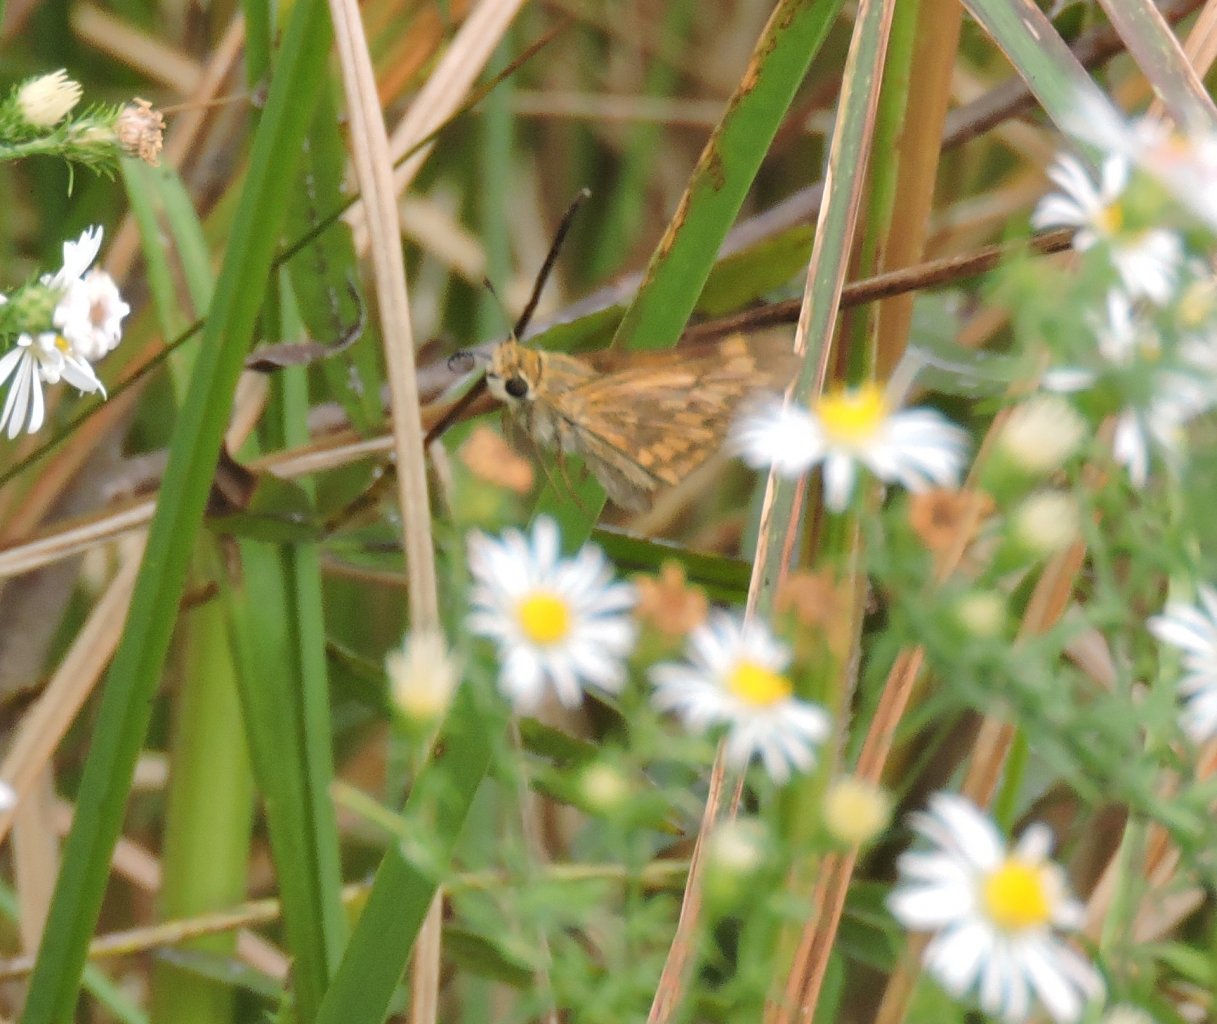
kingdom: Animalia
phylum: Arthropoda
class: Insecta
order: Lepidoptera
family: Hesperiidae
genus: Atalopedes
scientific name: Atalopedes campestris
